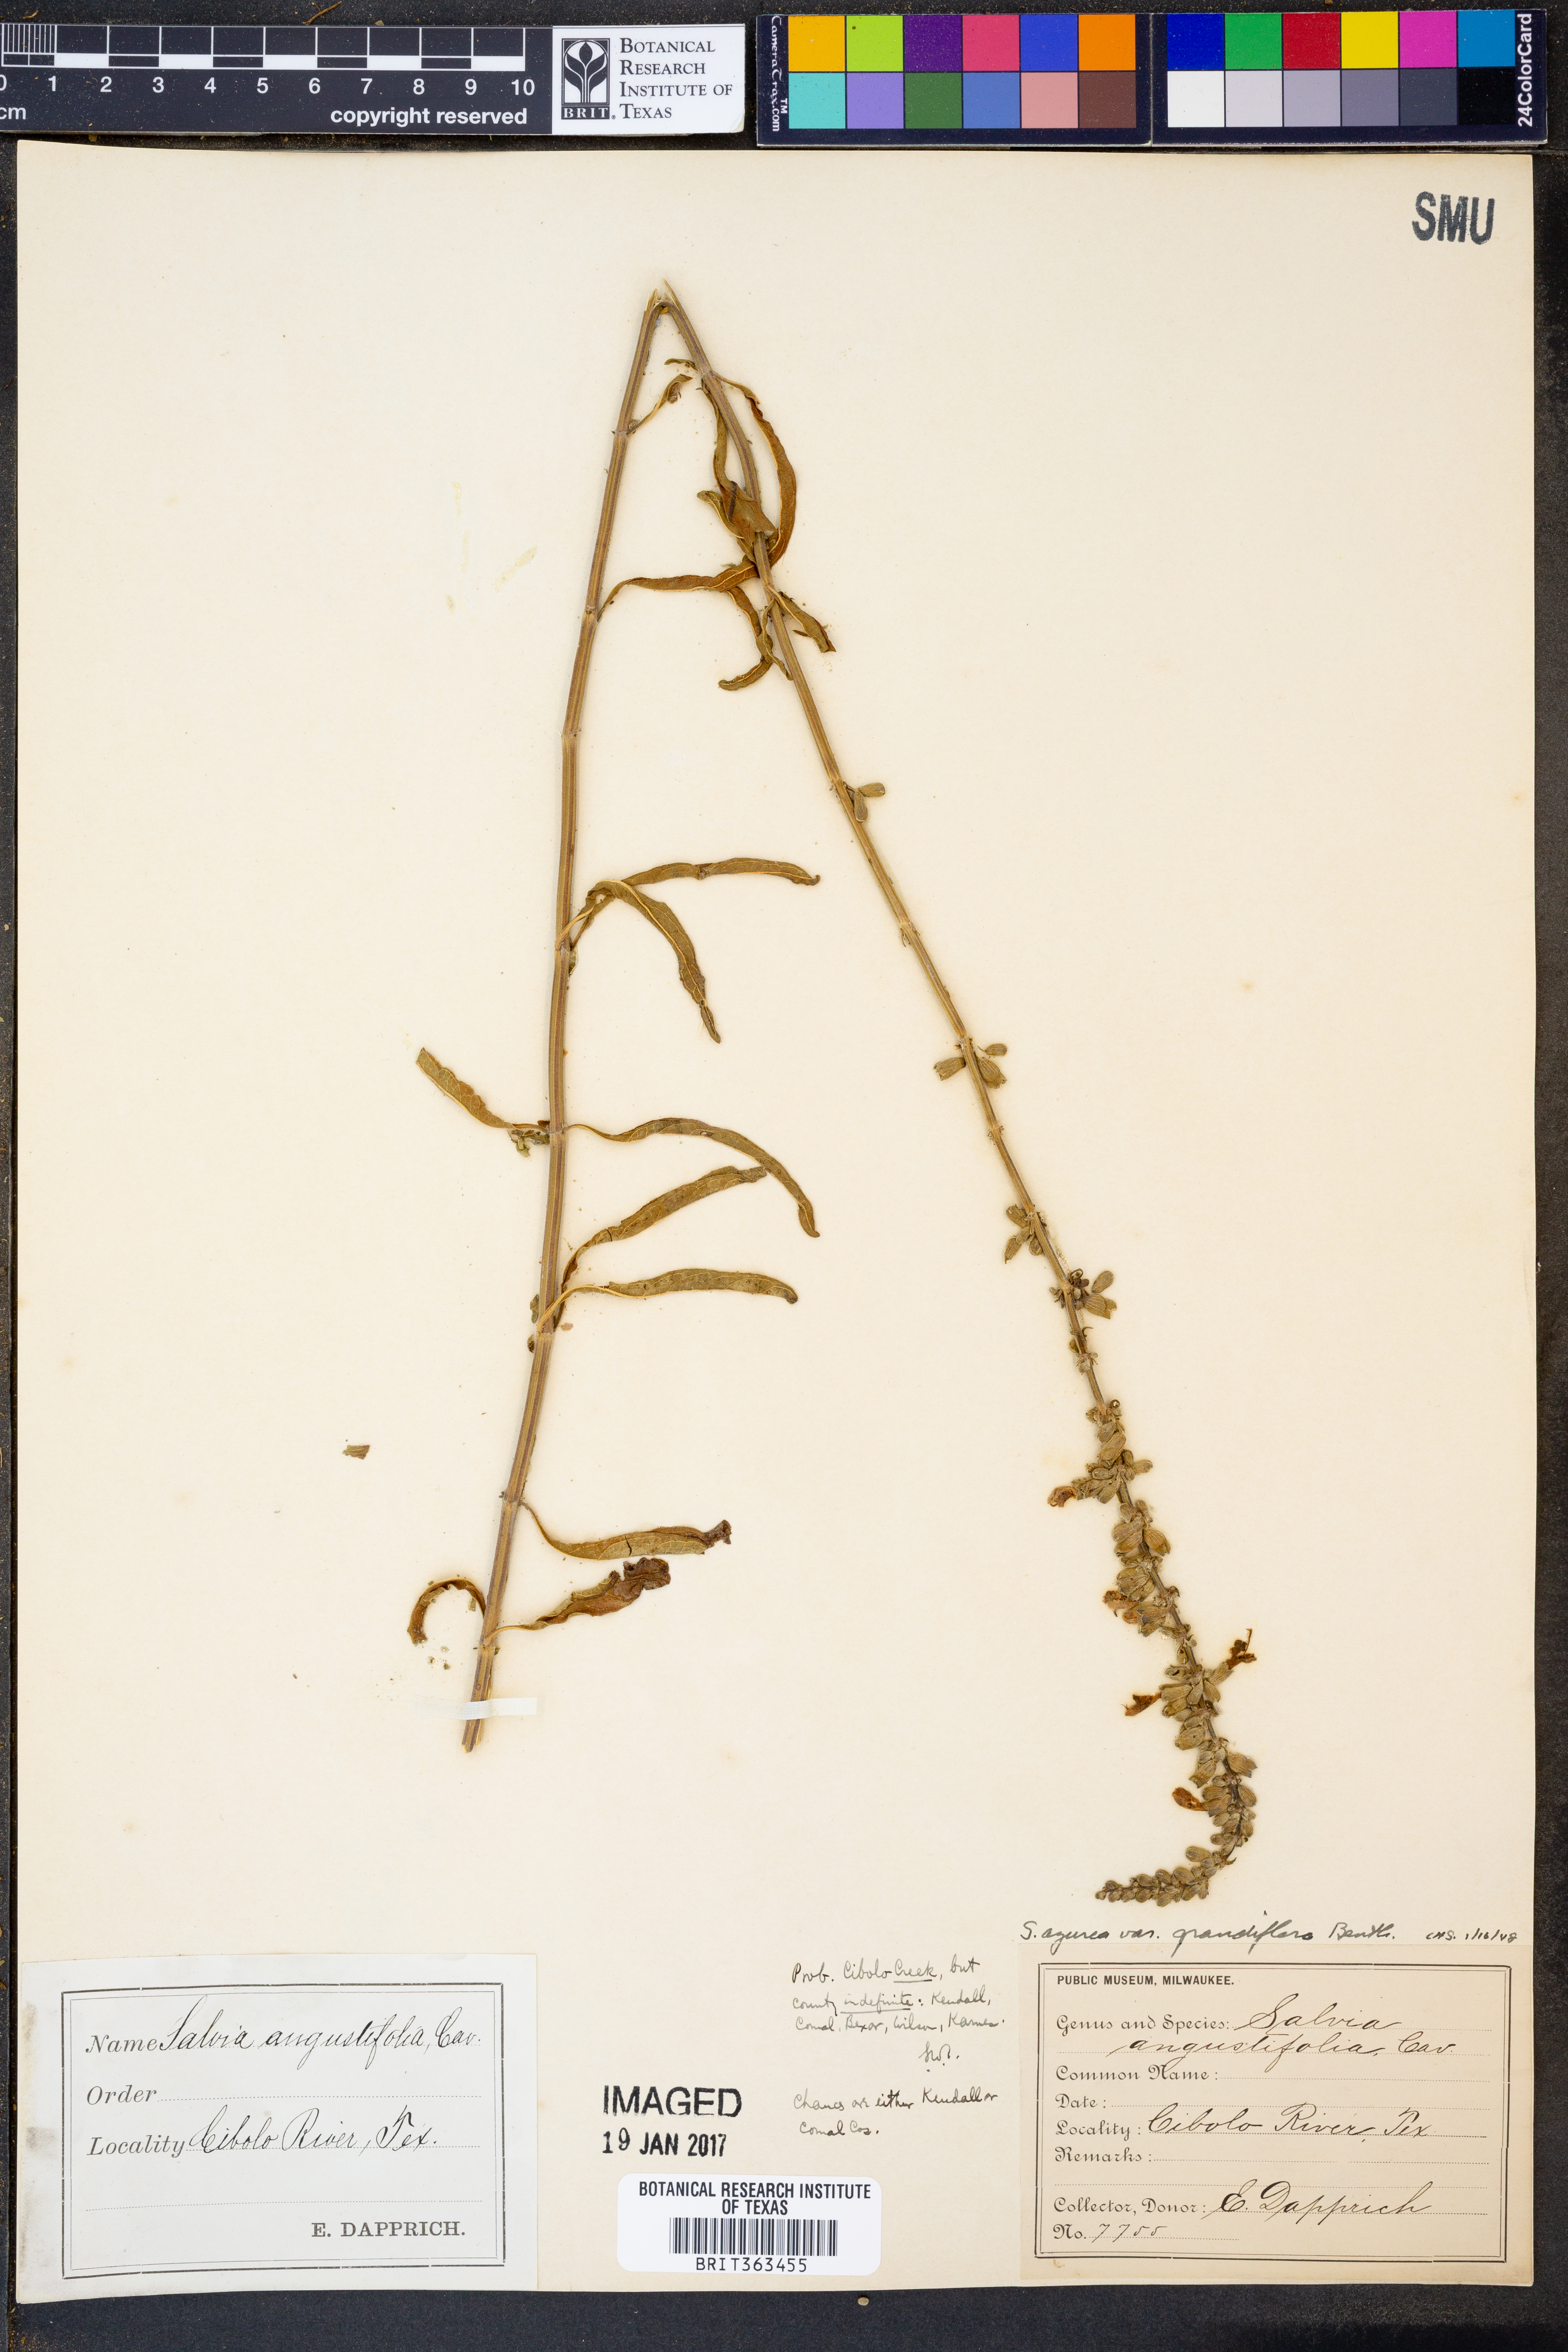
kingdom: Plantae
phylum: Tracheophyta
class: Magnoliopsida
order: Lamiales
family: Lamiaceae
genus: Salvia
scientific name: Salvia azurea
